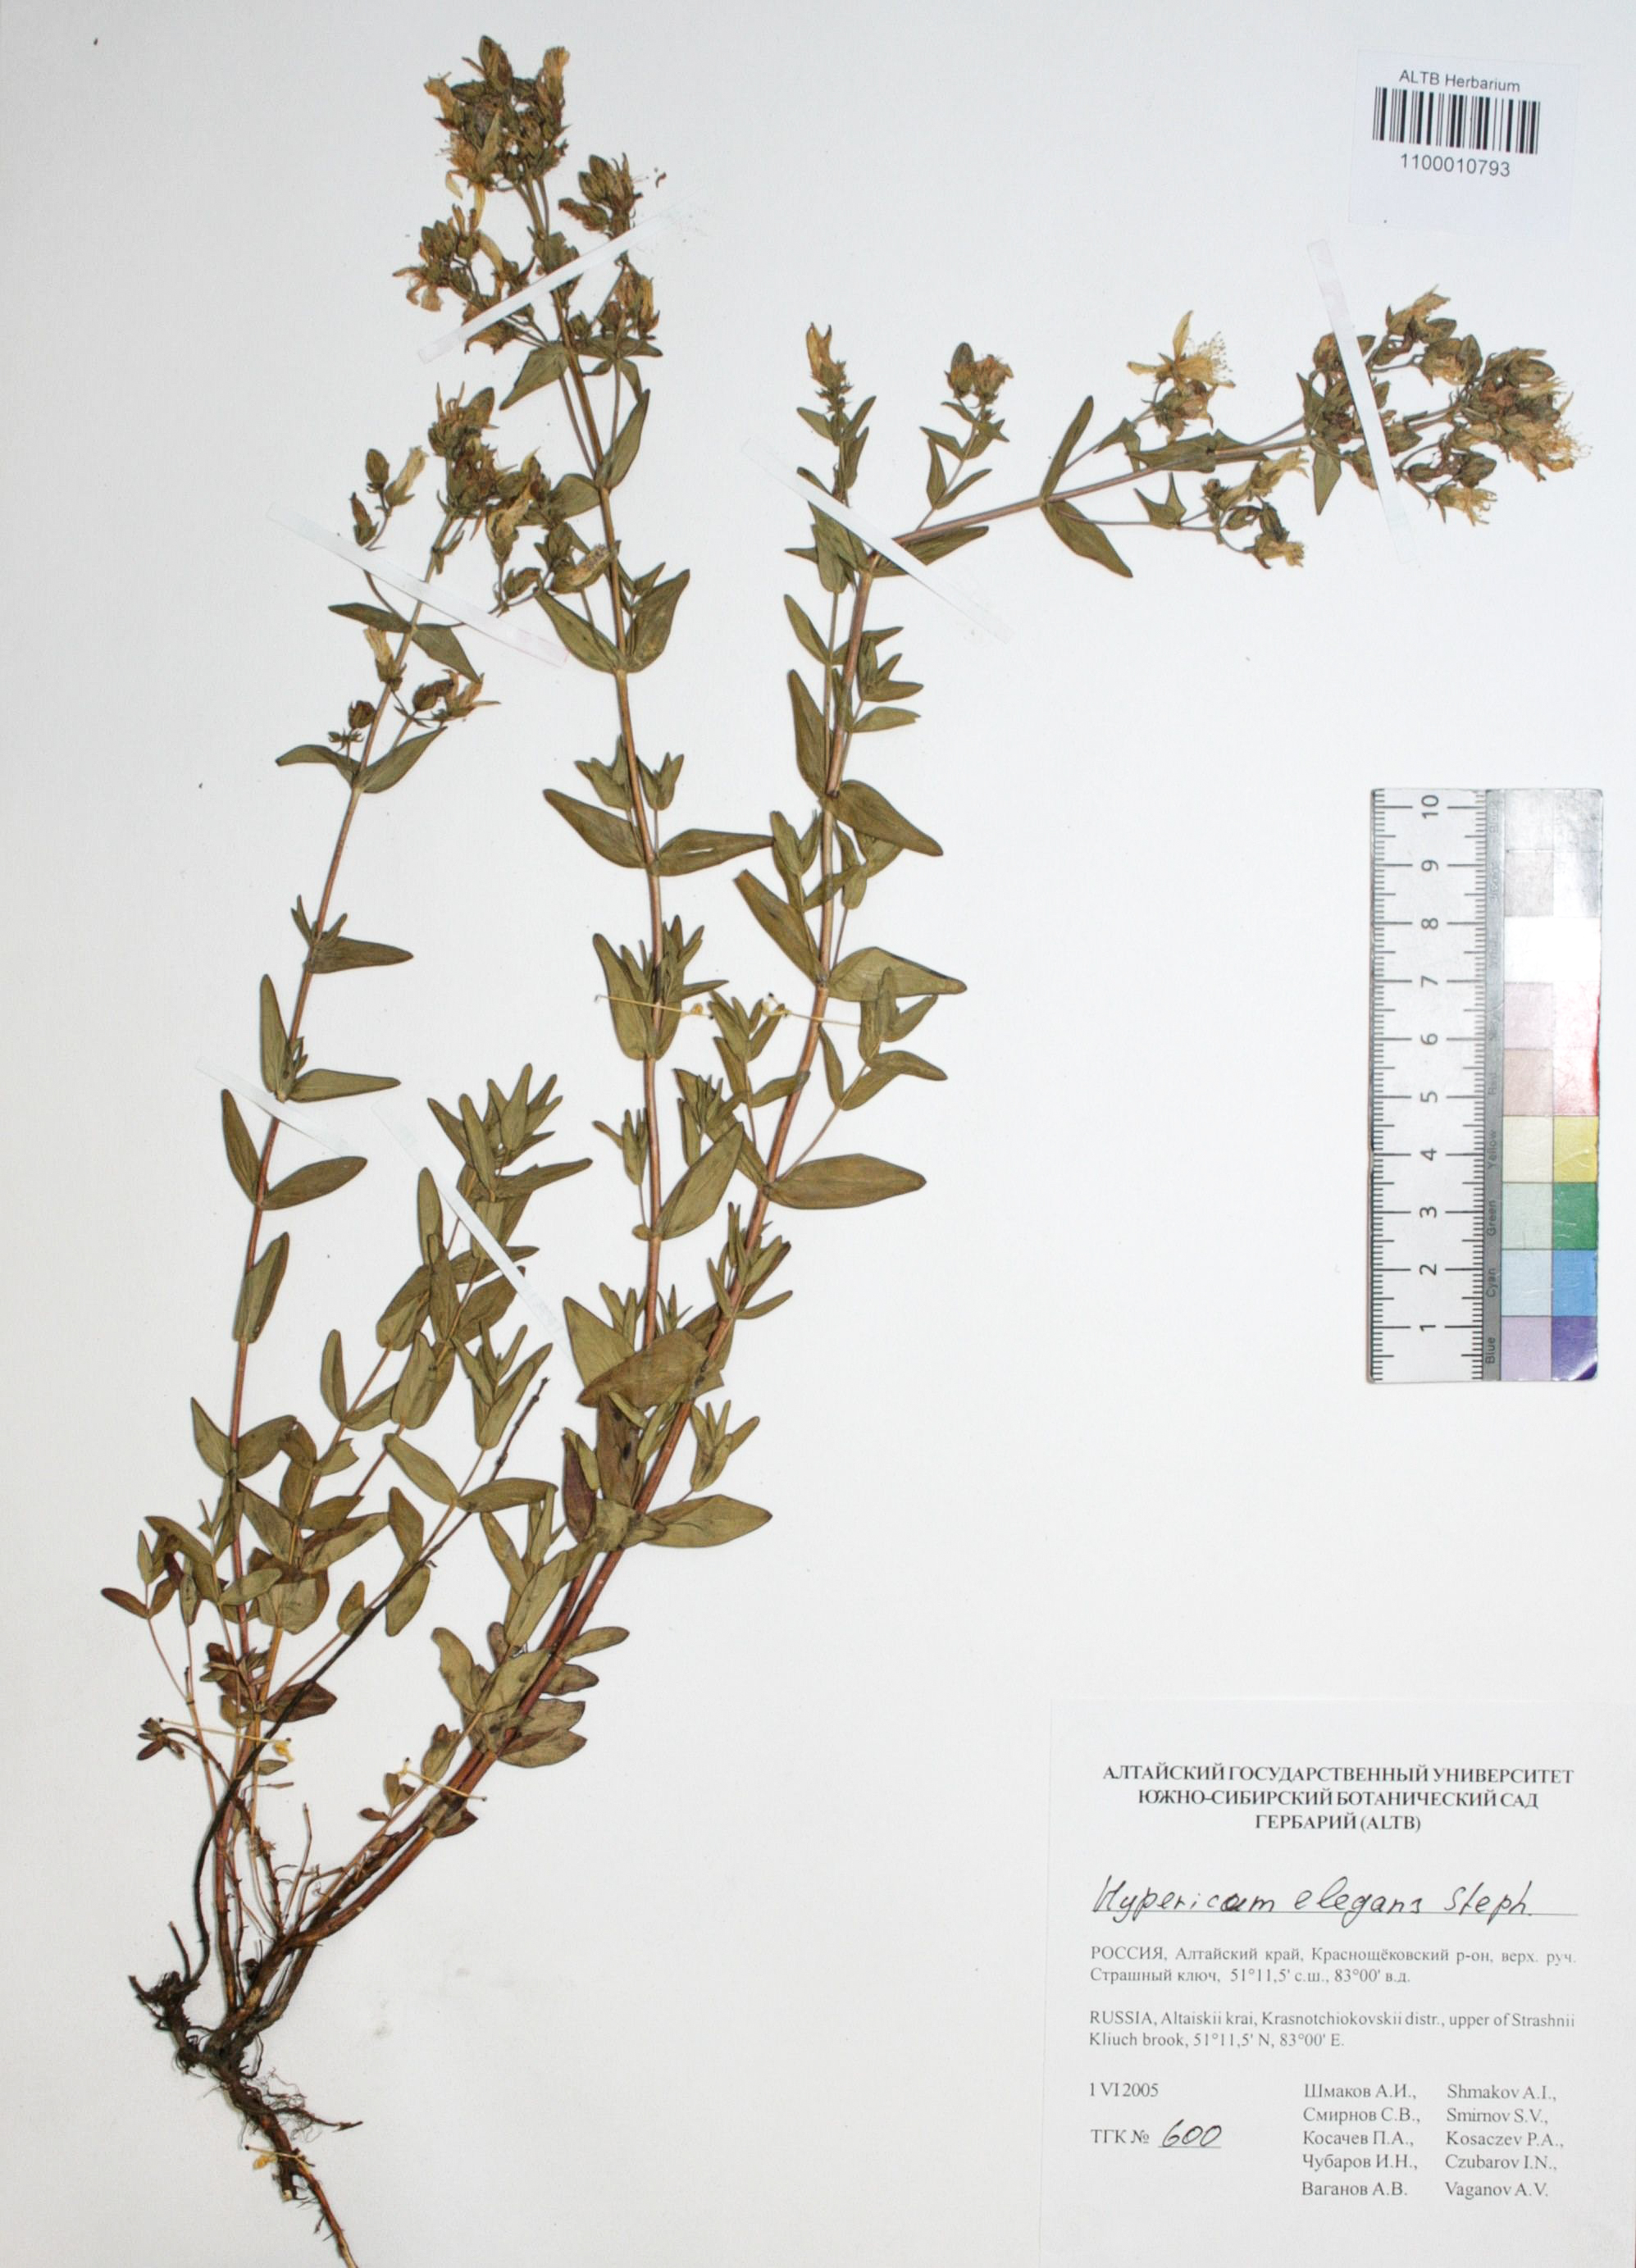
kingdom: Plantae
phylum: Tracheophyta
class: Magnoliopsida
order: Malpighiales
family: Hypericaceae
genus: Hypericum
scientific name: Hypericum elegans
